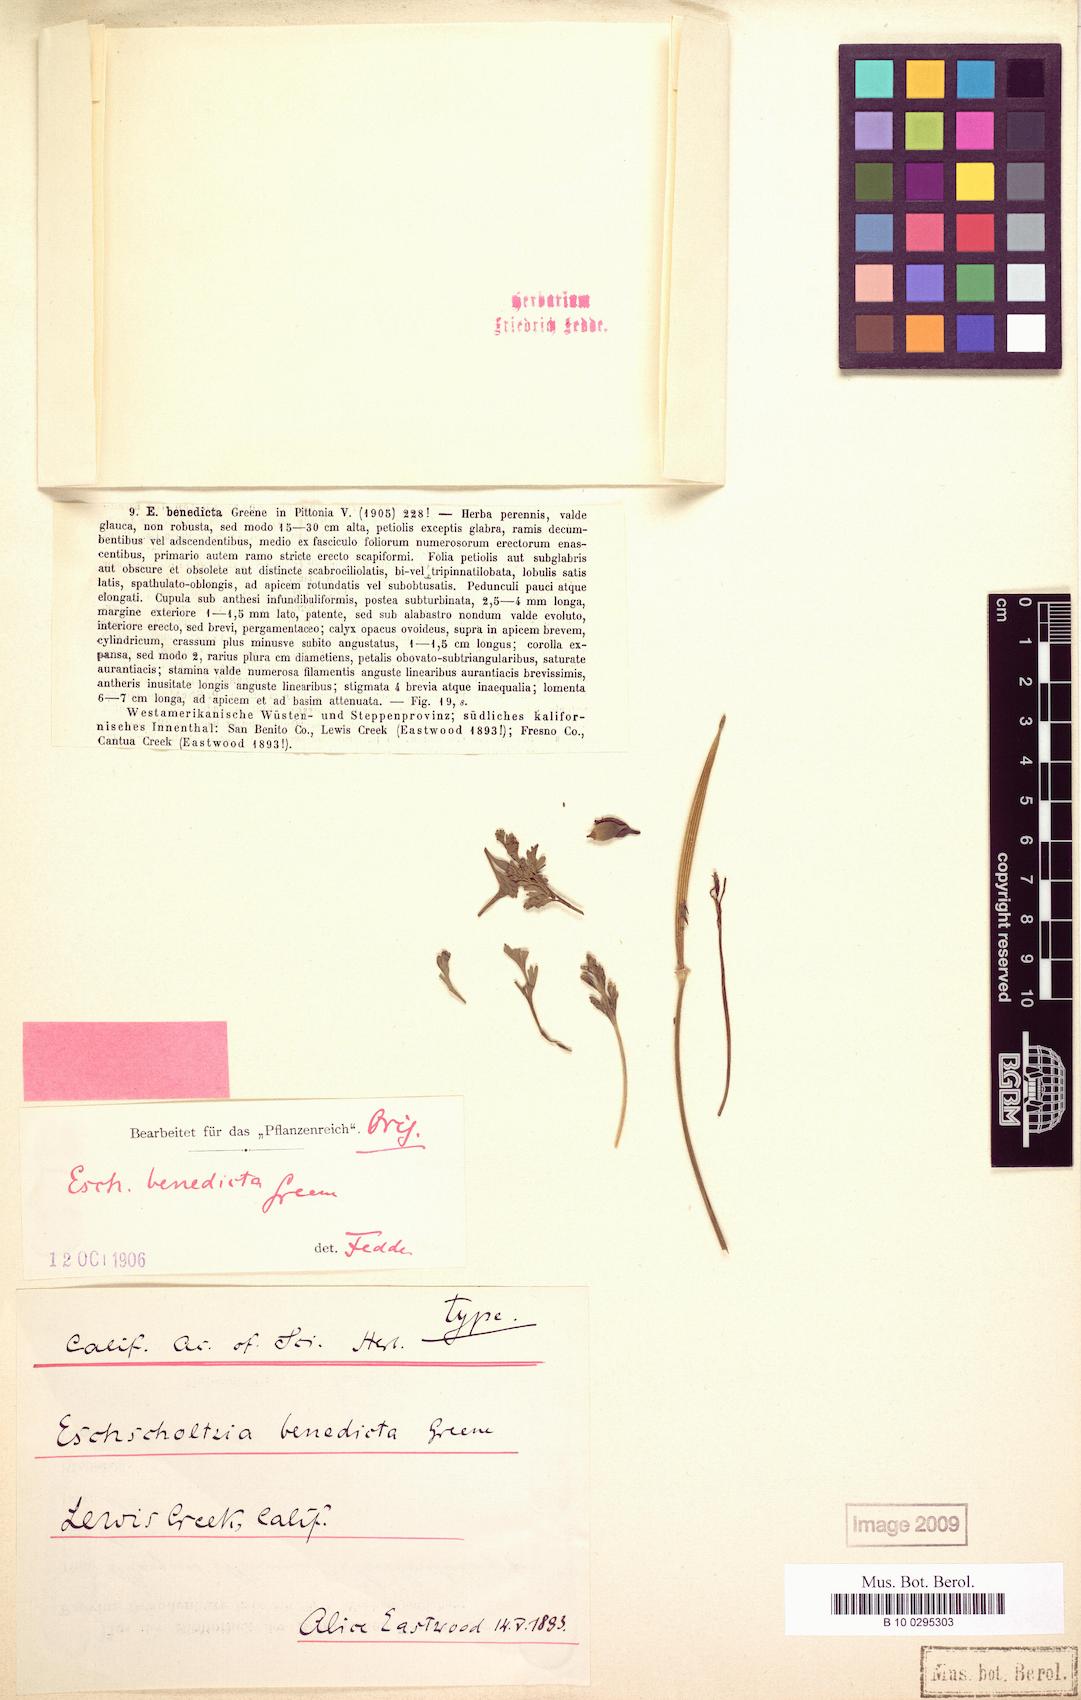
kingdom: Plantae
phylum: Tracheophyta
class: Magnoliopsida
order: Ranunculales
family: Papaveraceae
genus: Eschscholzia
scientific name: Eschscholzia californica
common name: California poppy
